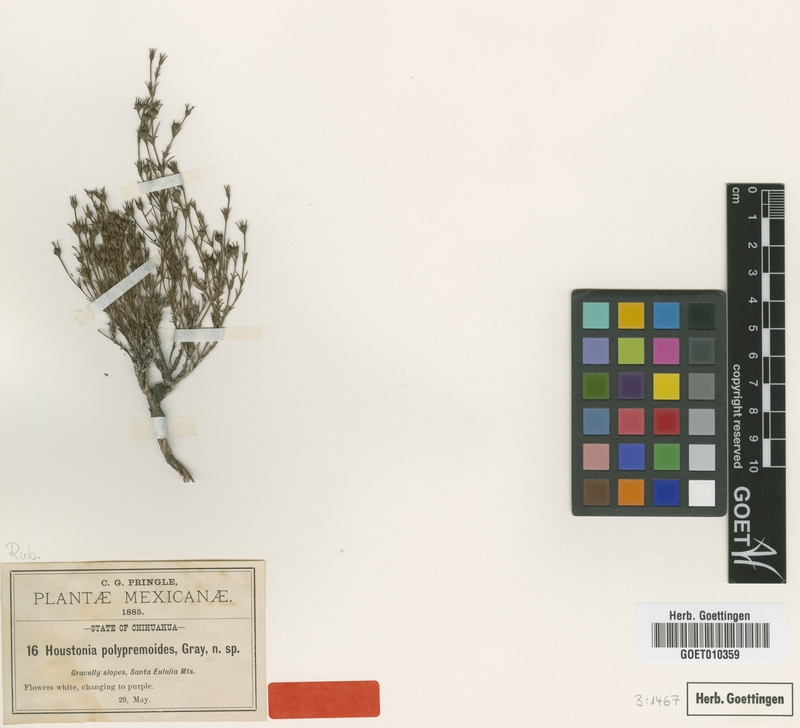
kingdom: Plantae
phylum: Tracheophyta
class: Magnoliopsida
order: Gentianales
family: Rubiaceae
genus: Houstonia
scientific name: Houstonia acerosa
